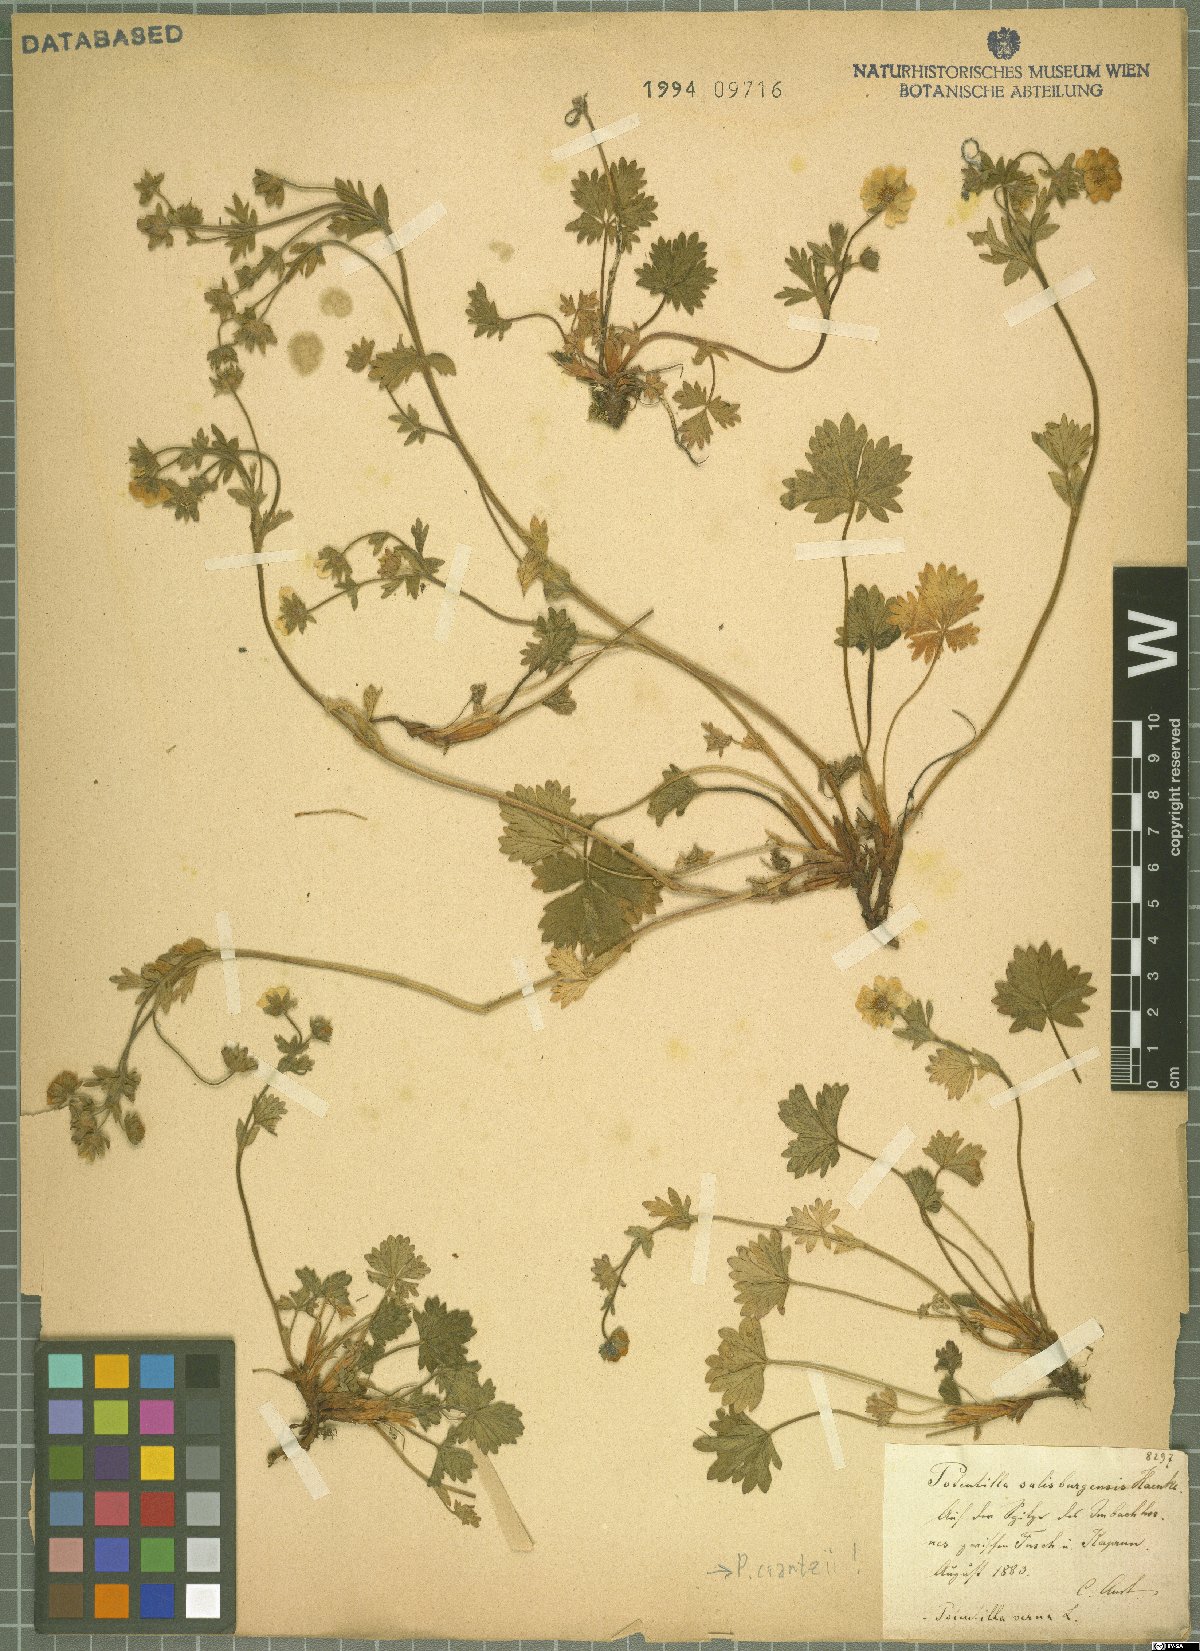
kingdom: Plantae
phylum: Tracheophyta
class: Magnoliopsida
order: Rosales
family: Rosaceae
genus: Potentilla
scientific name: Potentilla crantzii
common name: Alpine cinquefoil
